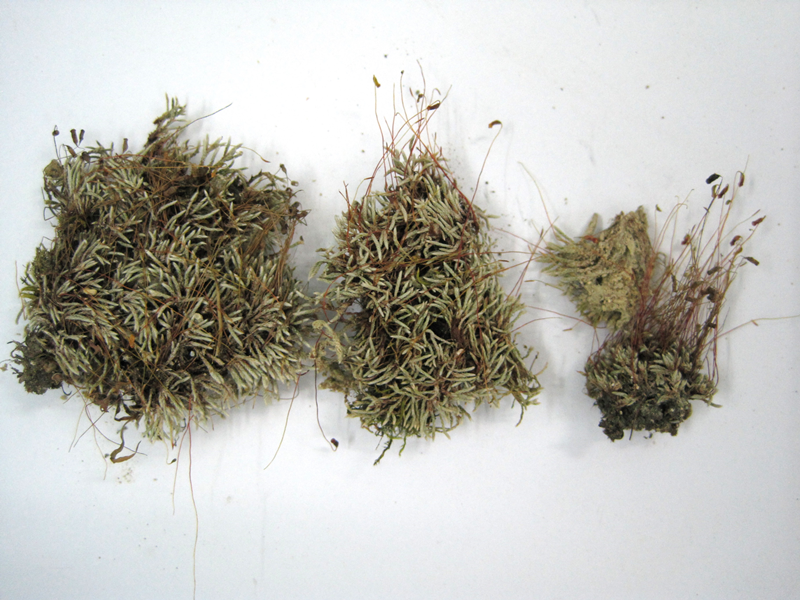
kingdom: Plantae
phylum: Bryophyta
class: Bryopsida
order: Bryales
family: Bryaceae
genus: Bryum
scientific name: Bryum argenteum
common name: Silver-moss
